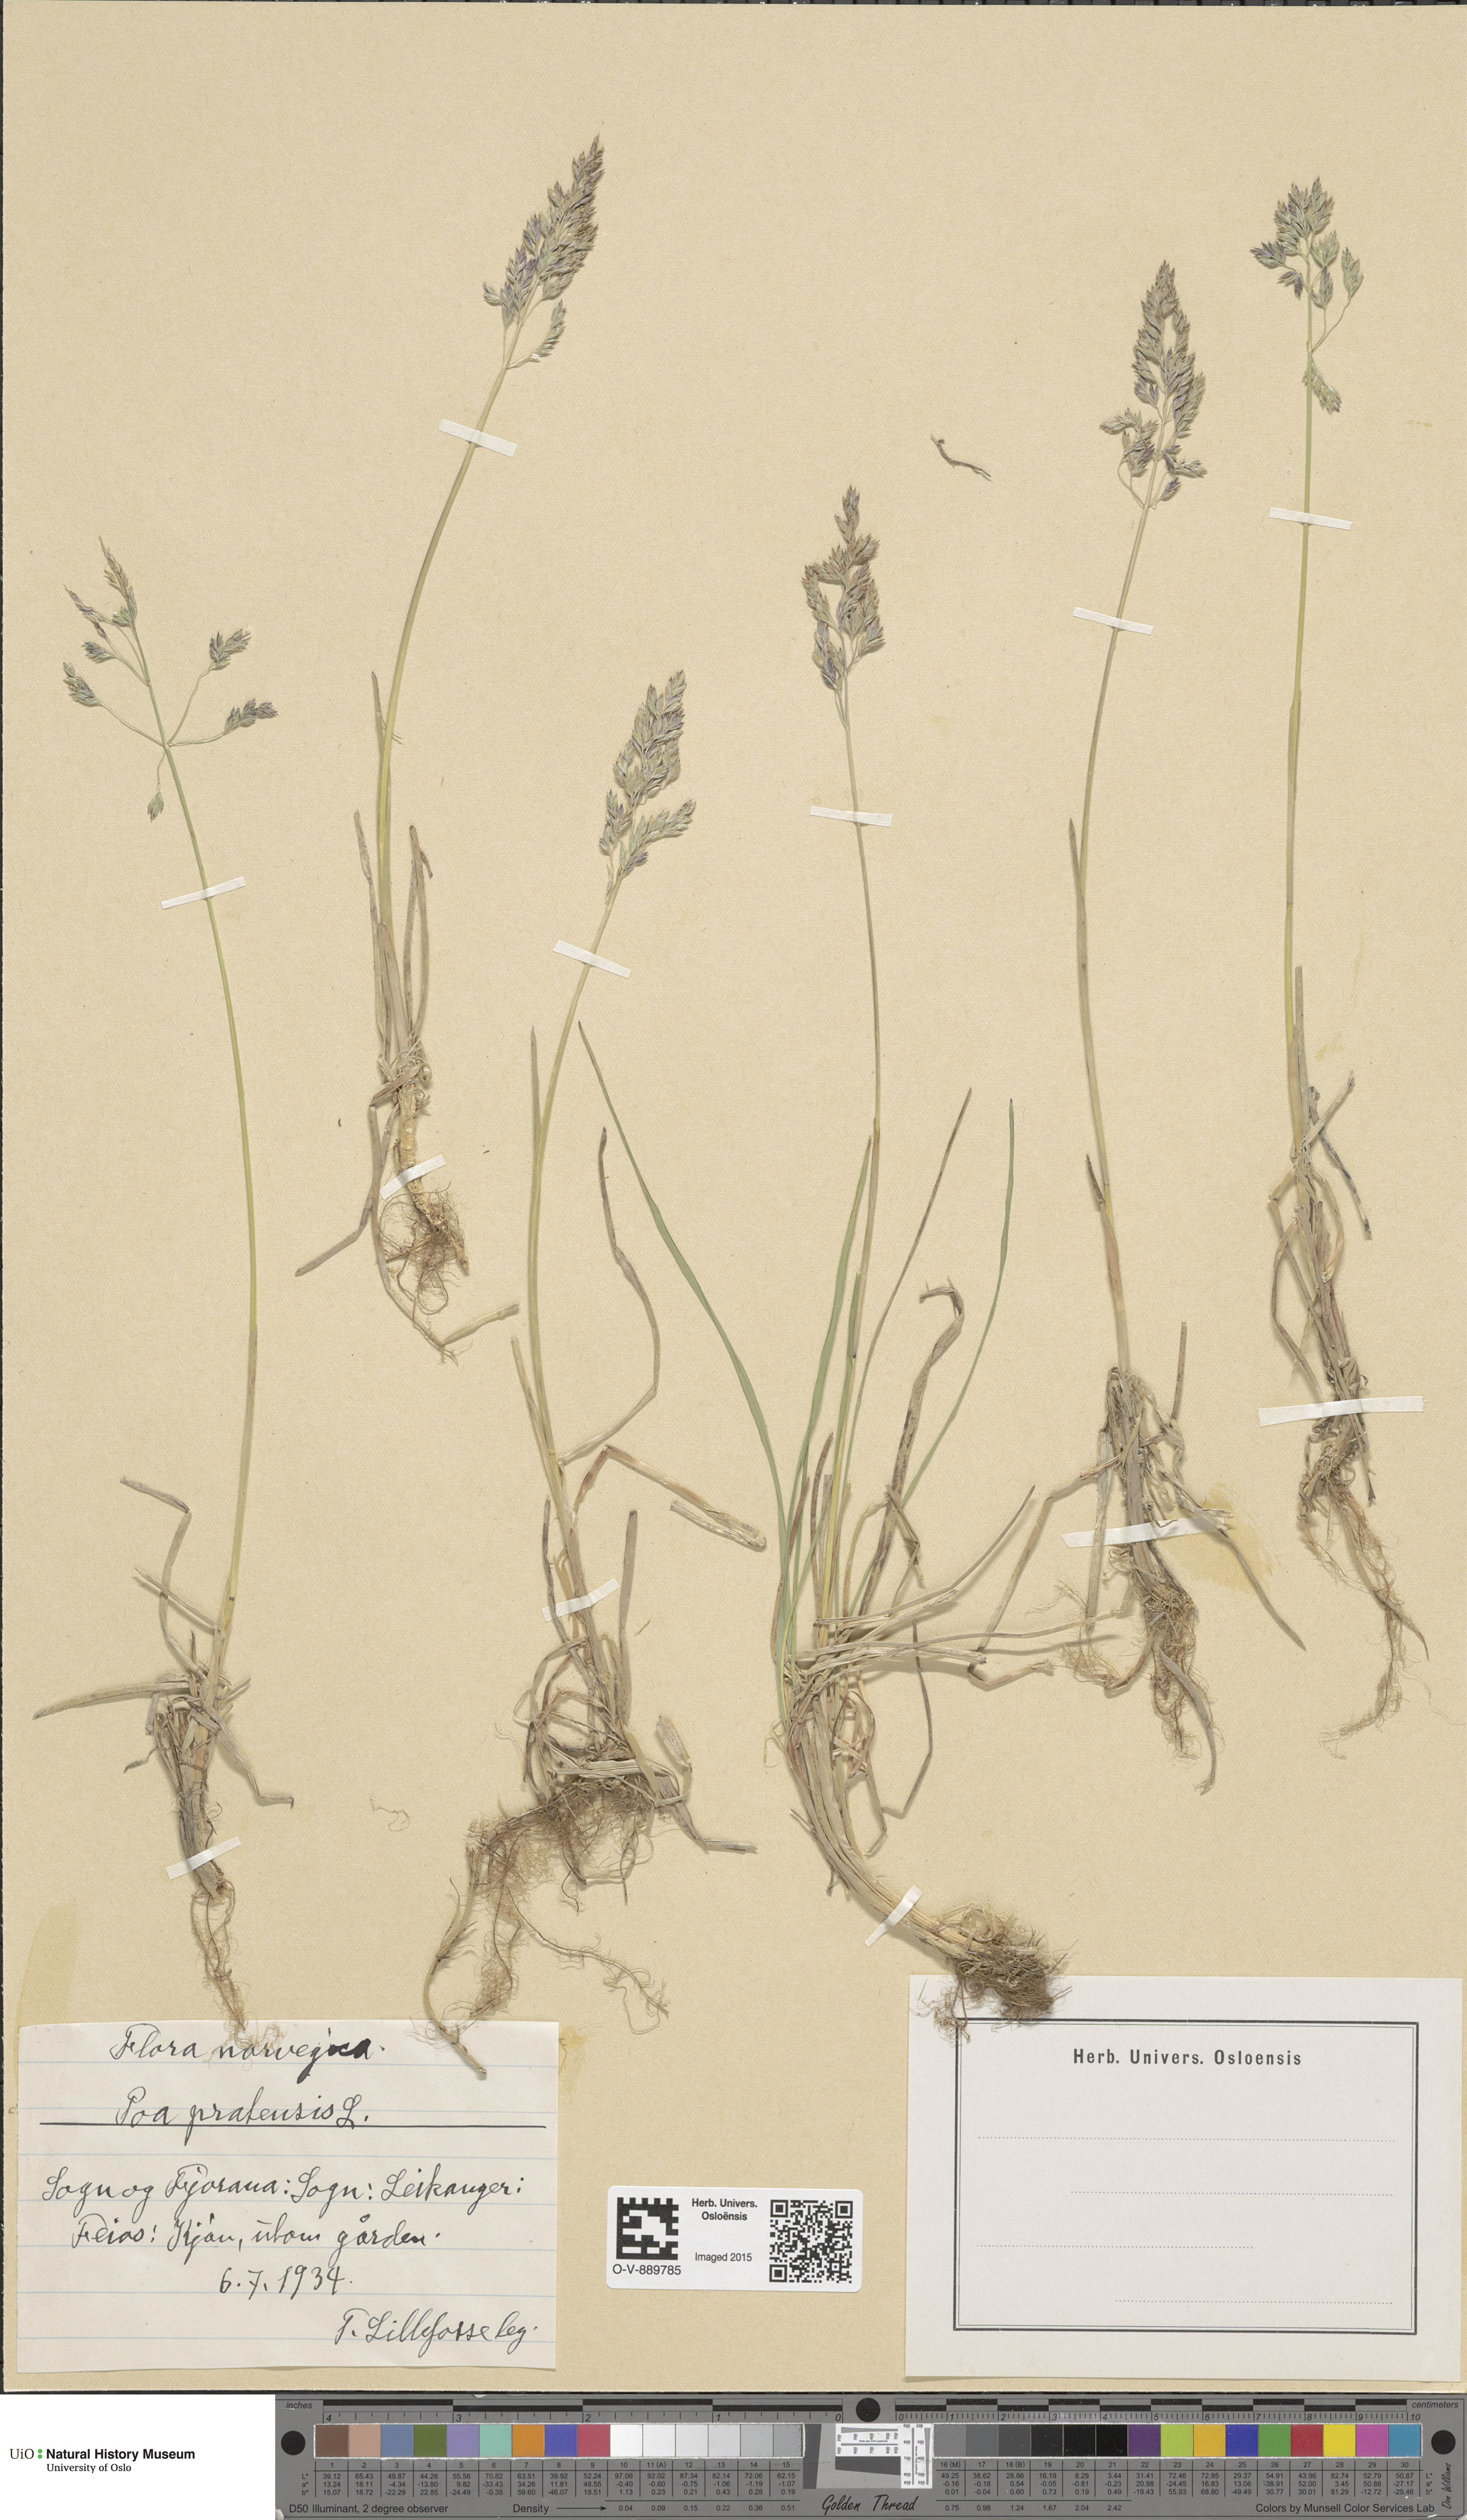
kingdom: Plantae
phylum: Tracheophyta
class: Liliopsida
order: Poales
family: Poaceae
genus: Poa
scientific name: Poa pratensis
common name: Kentucky bluegrass
